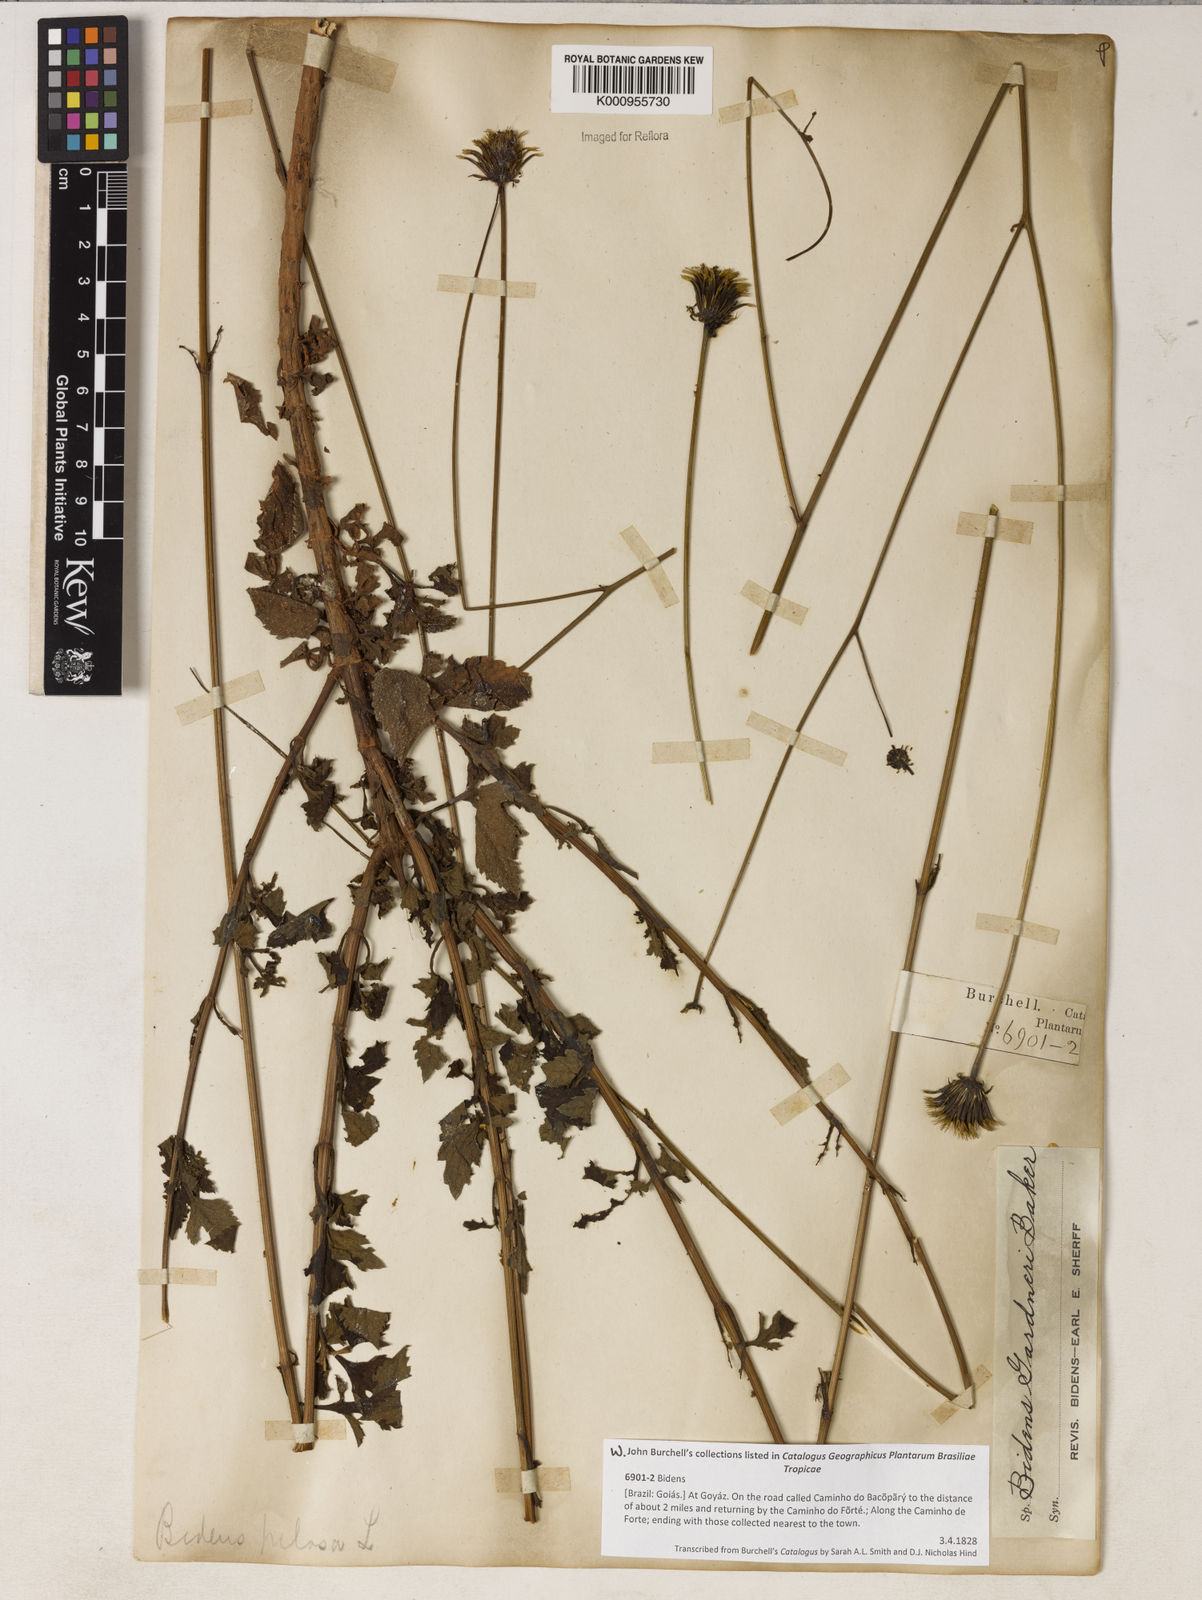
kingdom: Plantae
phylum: Tracheophyta
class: Magnoliopsida
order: Asterales
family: Asteraceae
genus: Bidens
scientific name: Bidens gardneri
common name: Ridge beggartick
